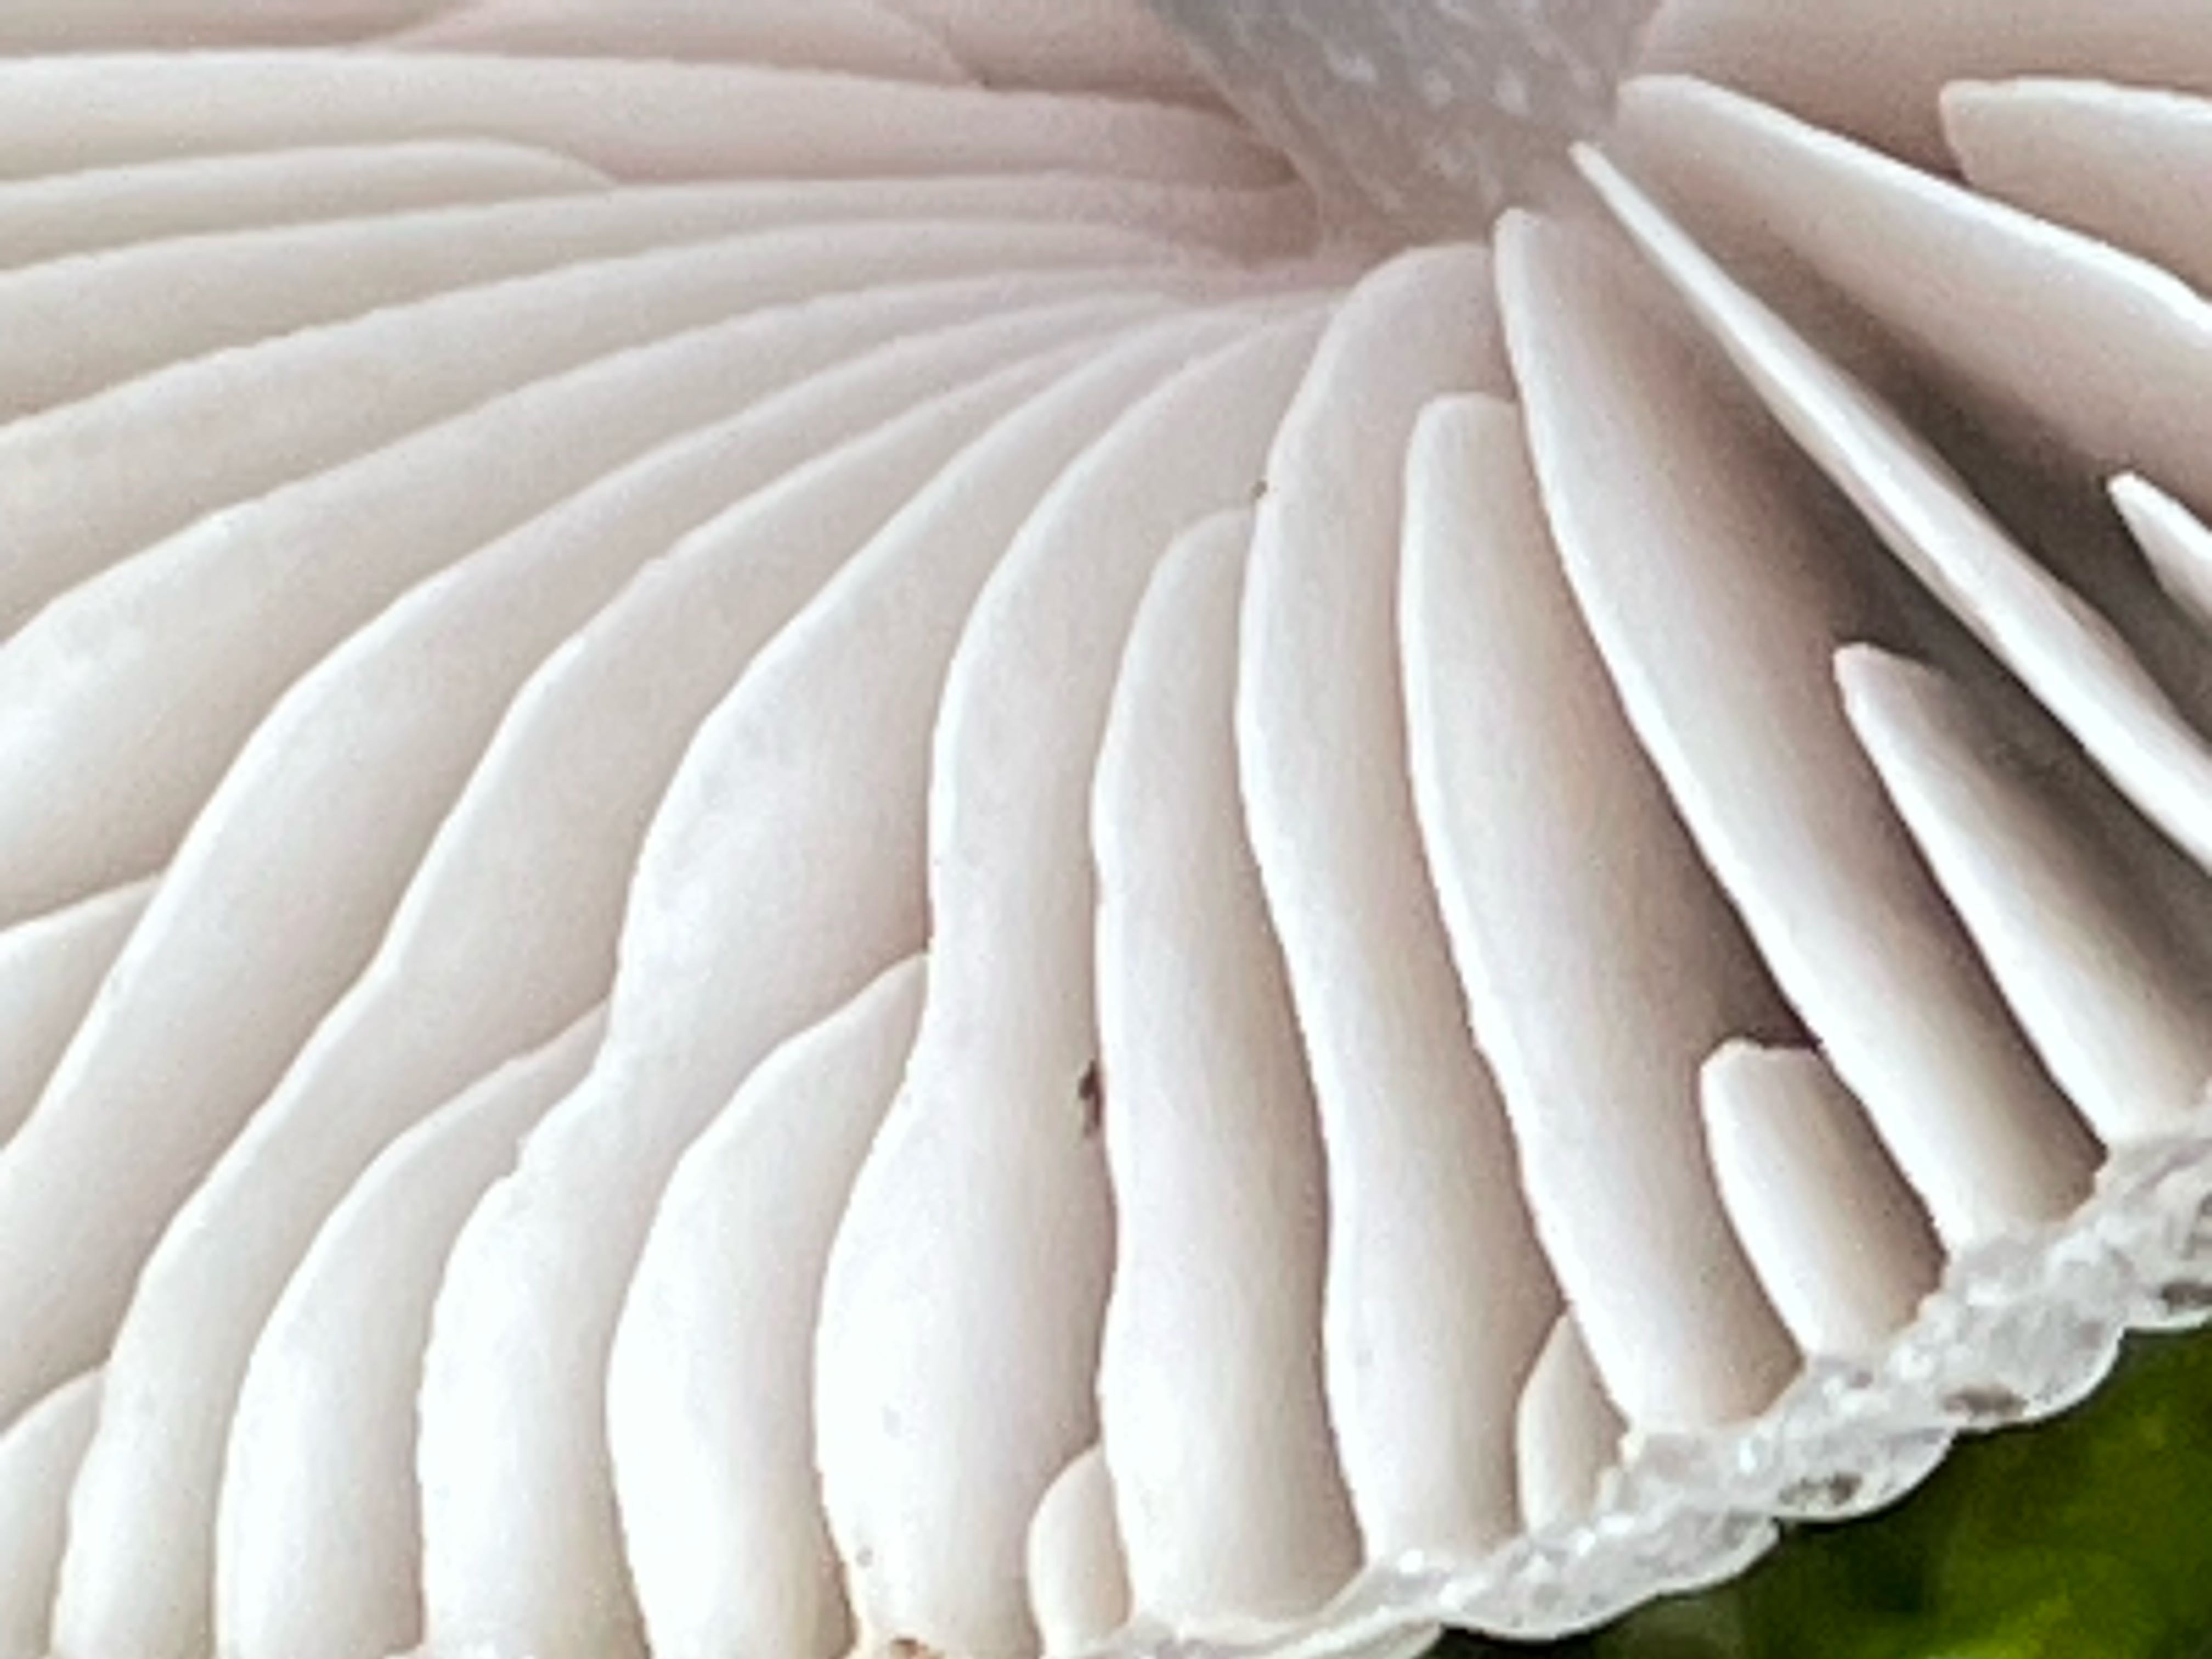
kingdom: Fungi
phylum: Basidiomycota
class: Agaricomycetes
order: Agaricales
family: Mycenaceae
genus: Mycena
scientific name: Mycena polygramma
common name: mangestribet huesvamp
